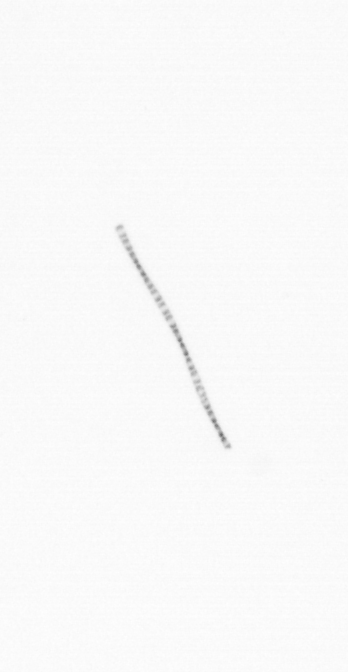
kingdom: Chromista
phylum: Ochrophyta
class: Bacillariophyceae
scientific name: Bacillariophyceae
